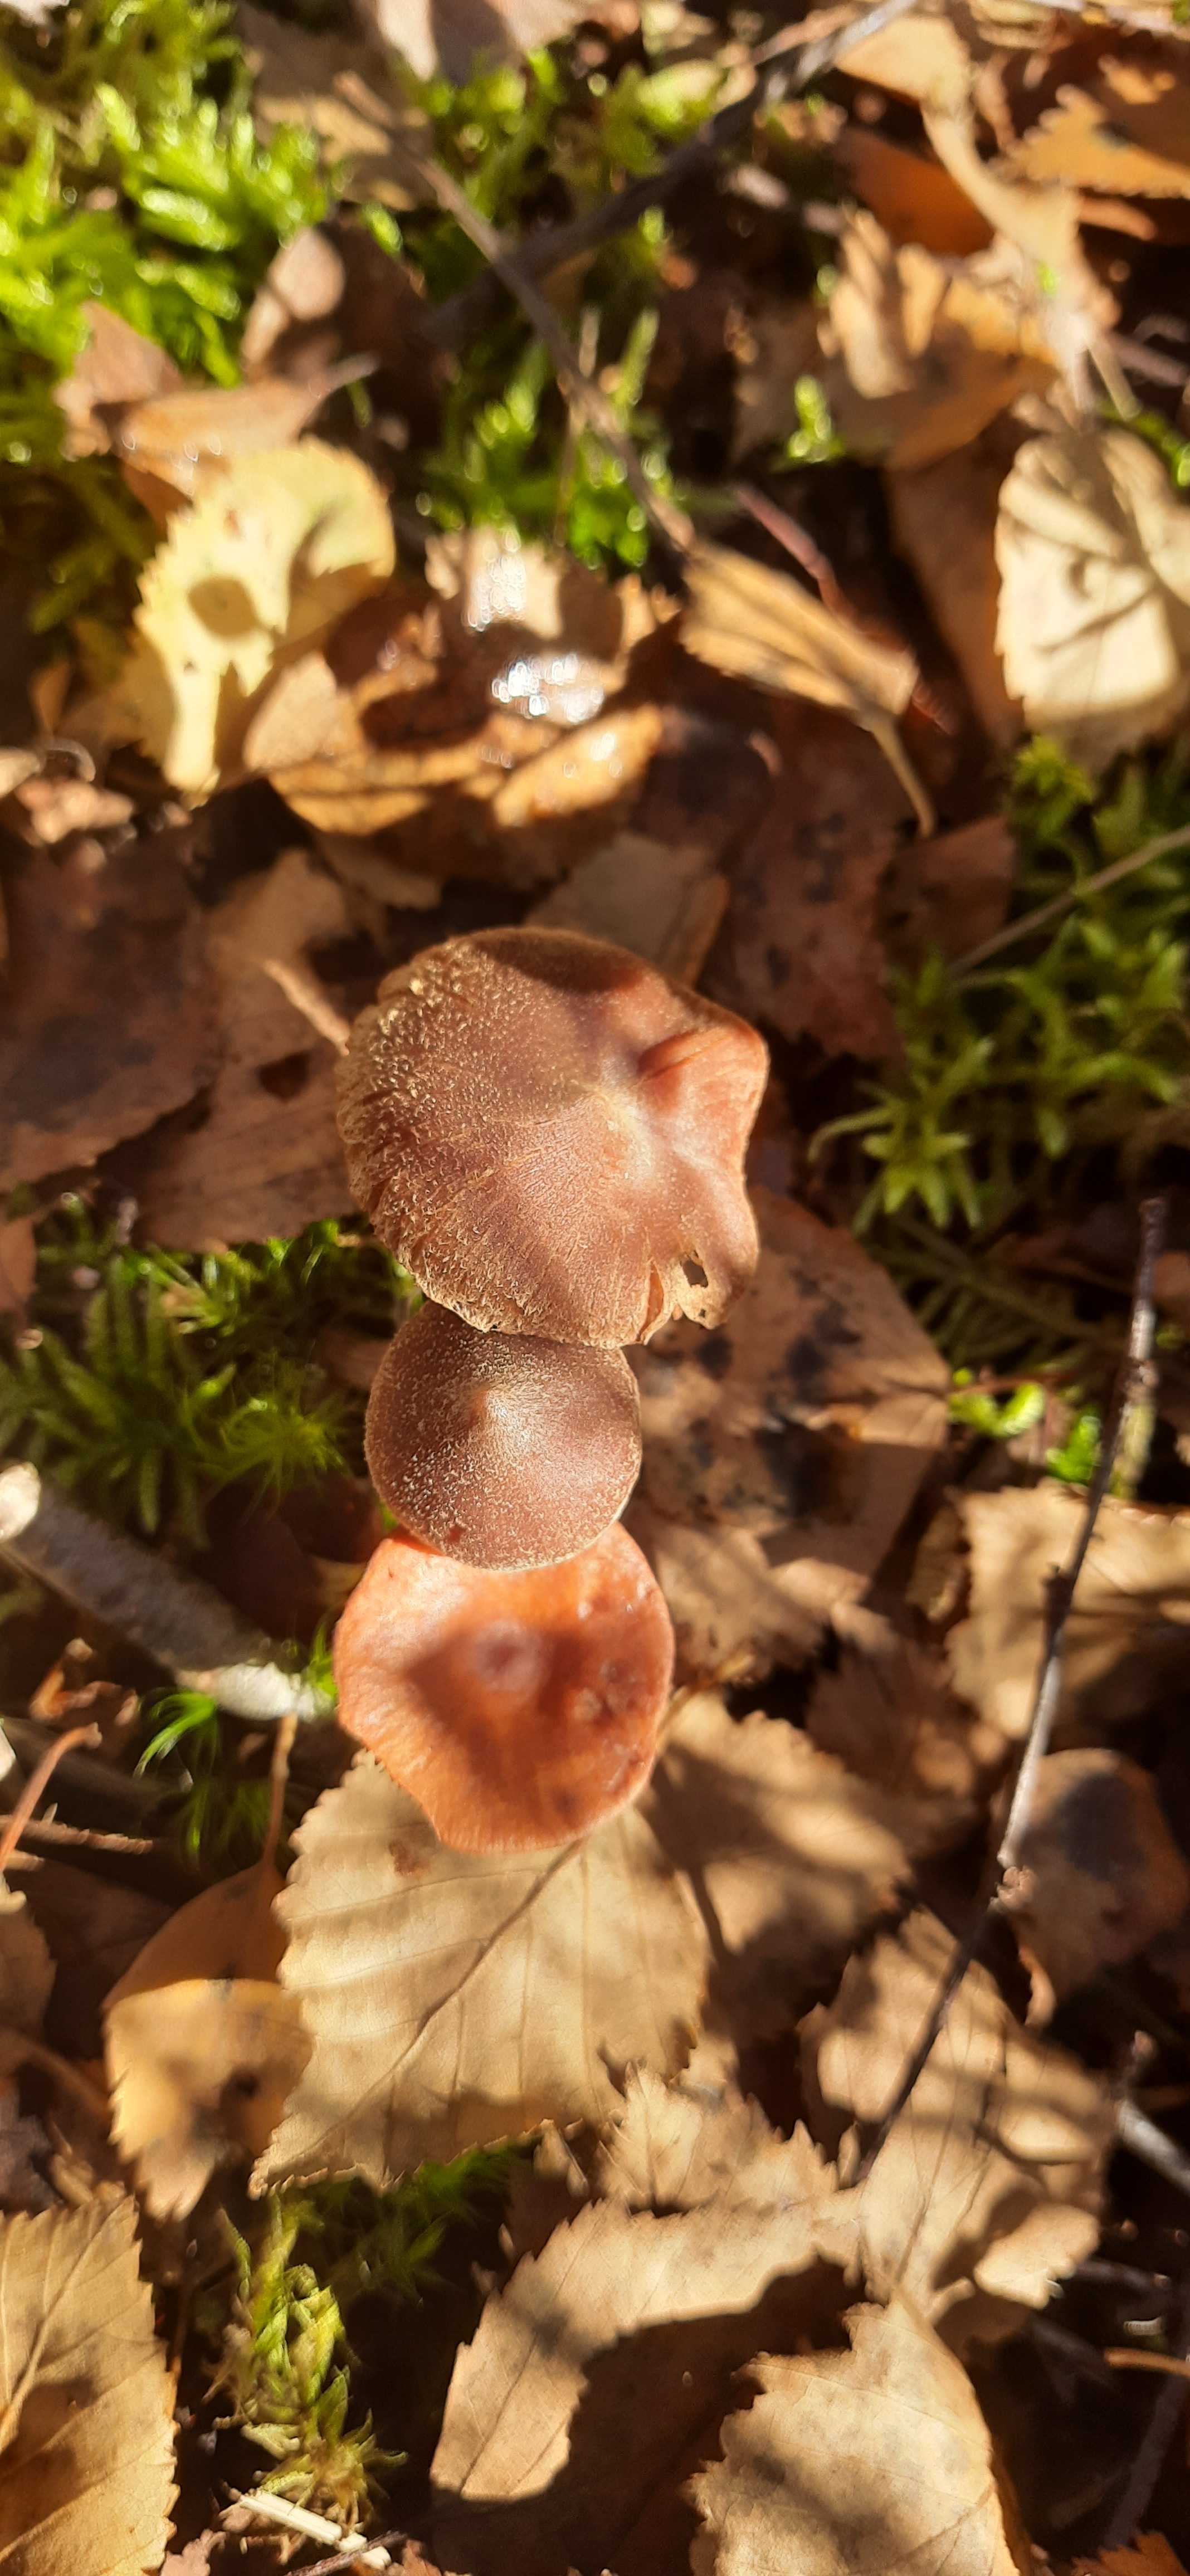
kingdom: Fungi
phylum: Basidiomycota
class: Agaricomycetes
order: Agaricales
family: Cortinariaceae
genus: Cortinarius
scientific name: Cortinarius flexipes
